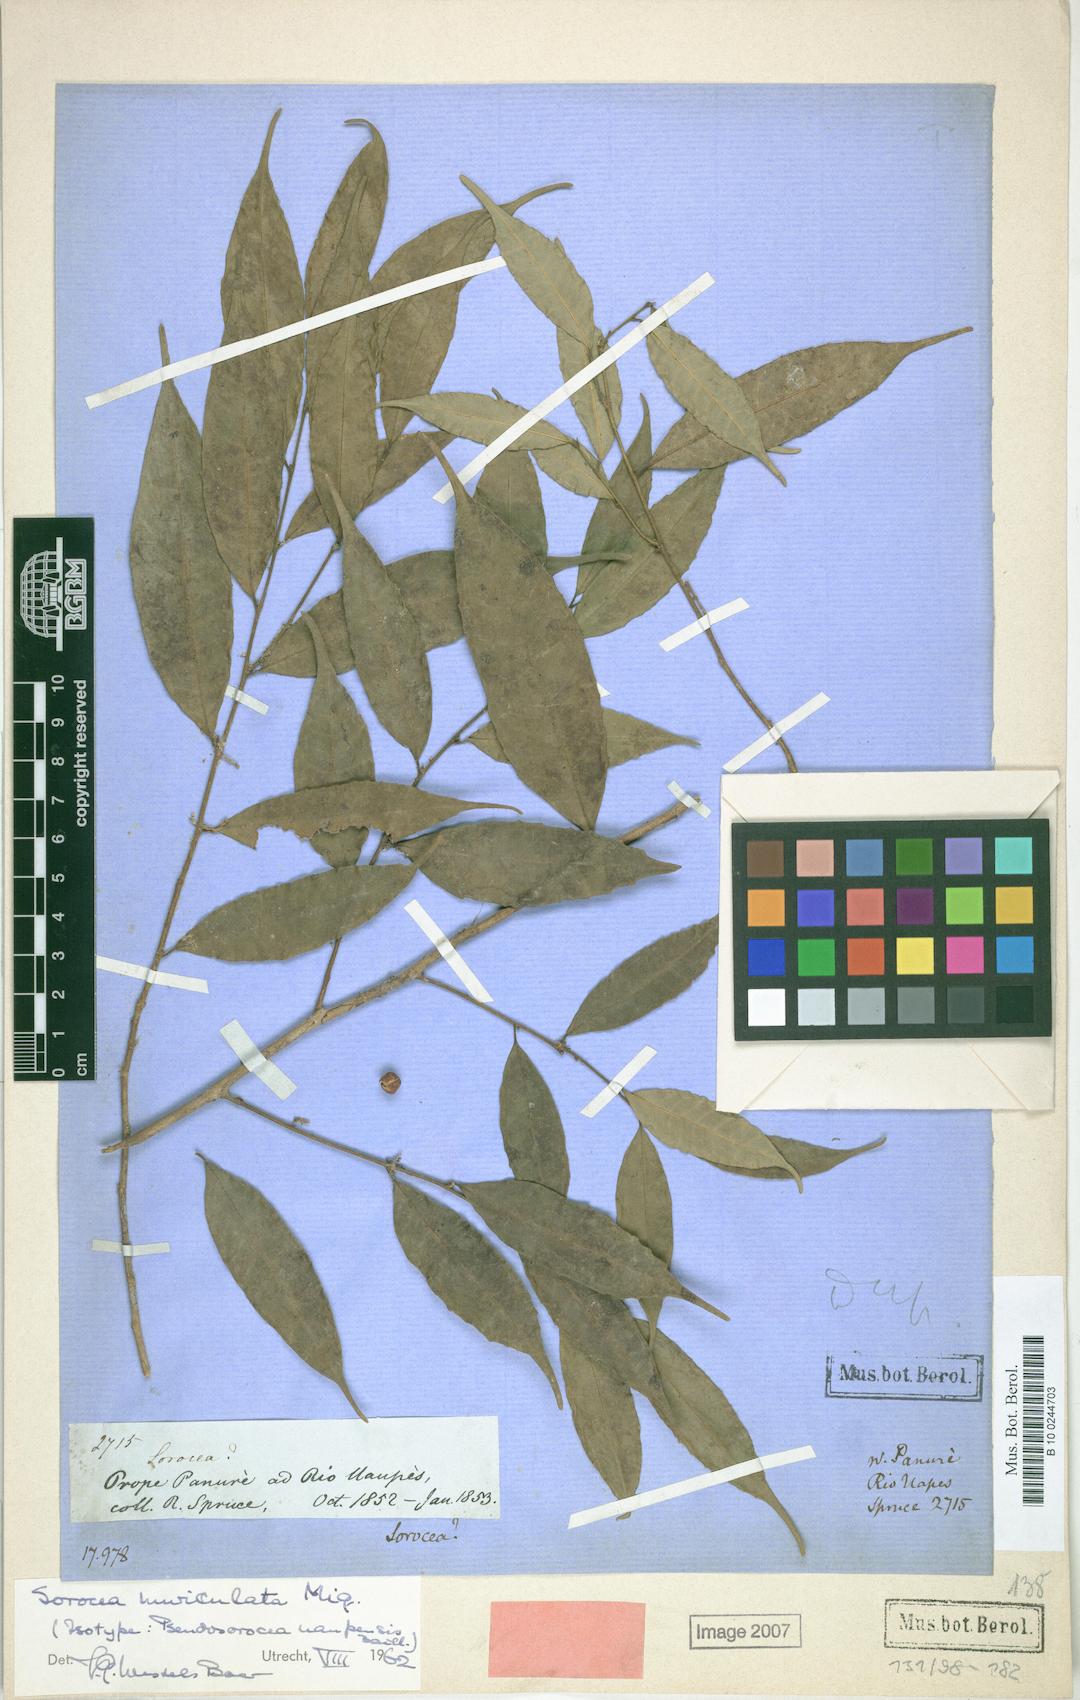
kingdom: Plantae
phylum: Tracheophyta
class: Magnoliopsida
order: Rosales
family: Moraceae
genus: Sorocea
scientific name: Sorocea muriculata
